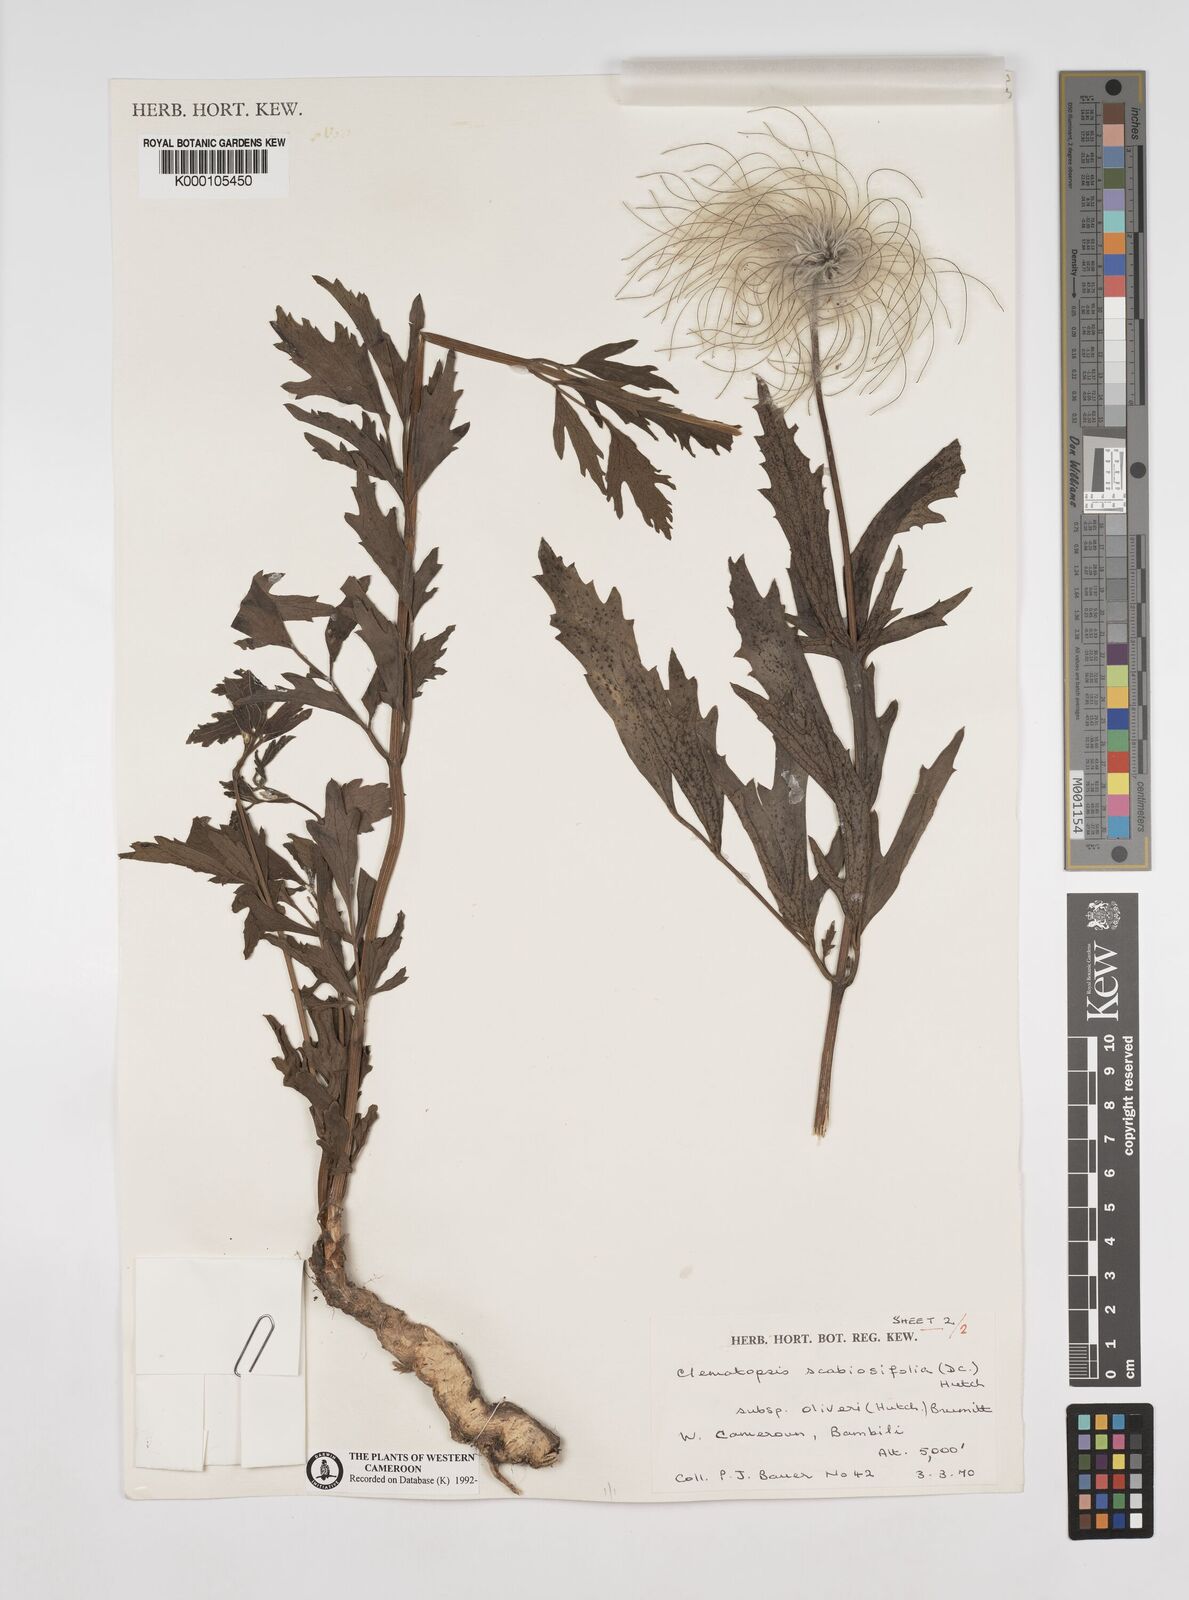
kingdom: Plantae
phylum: Tracheophyta
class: Magnoliopsida
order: Ranunculales
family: Ranunculaceae
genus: Clematis
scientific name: Clematis villosa
